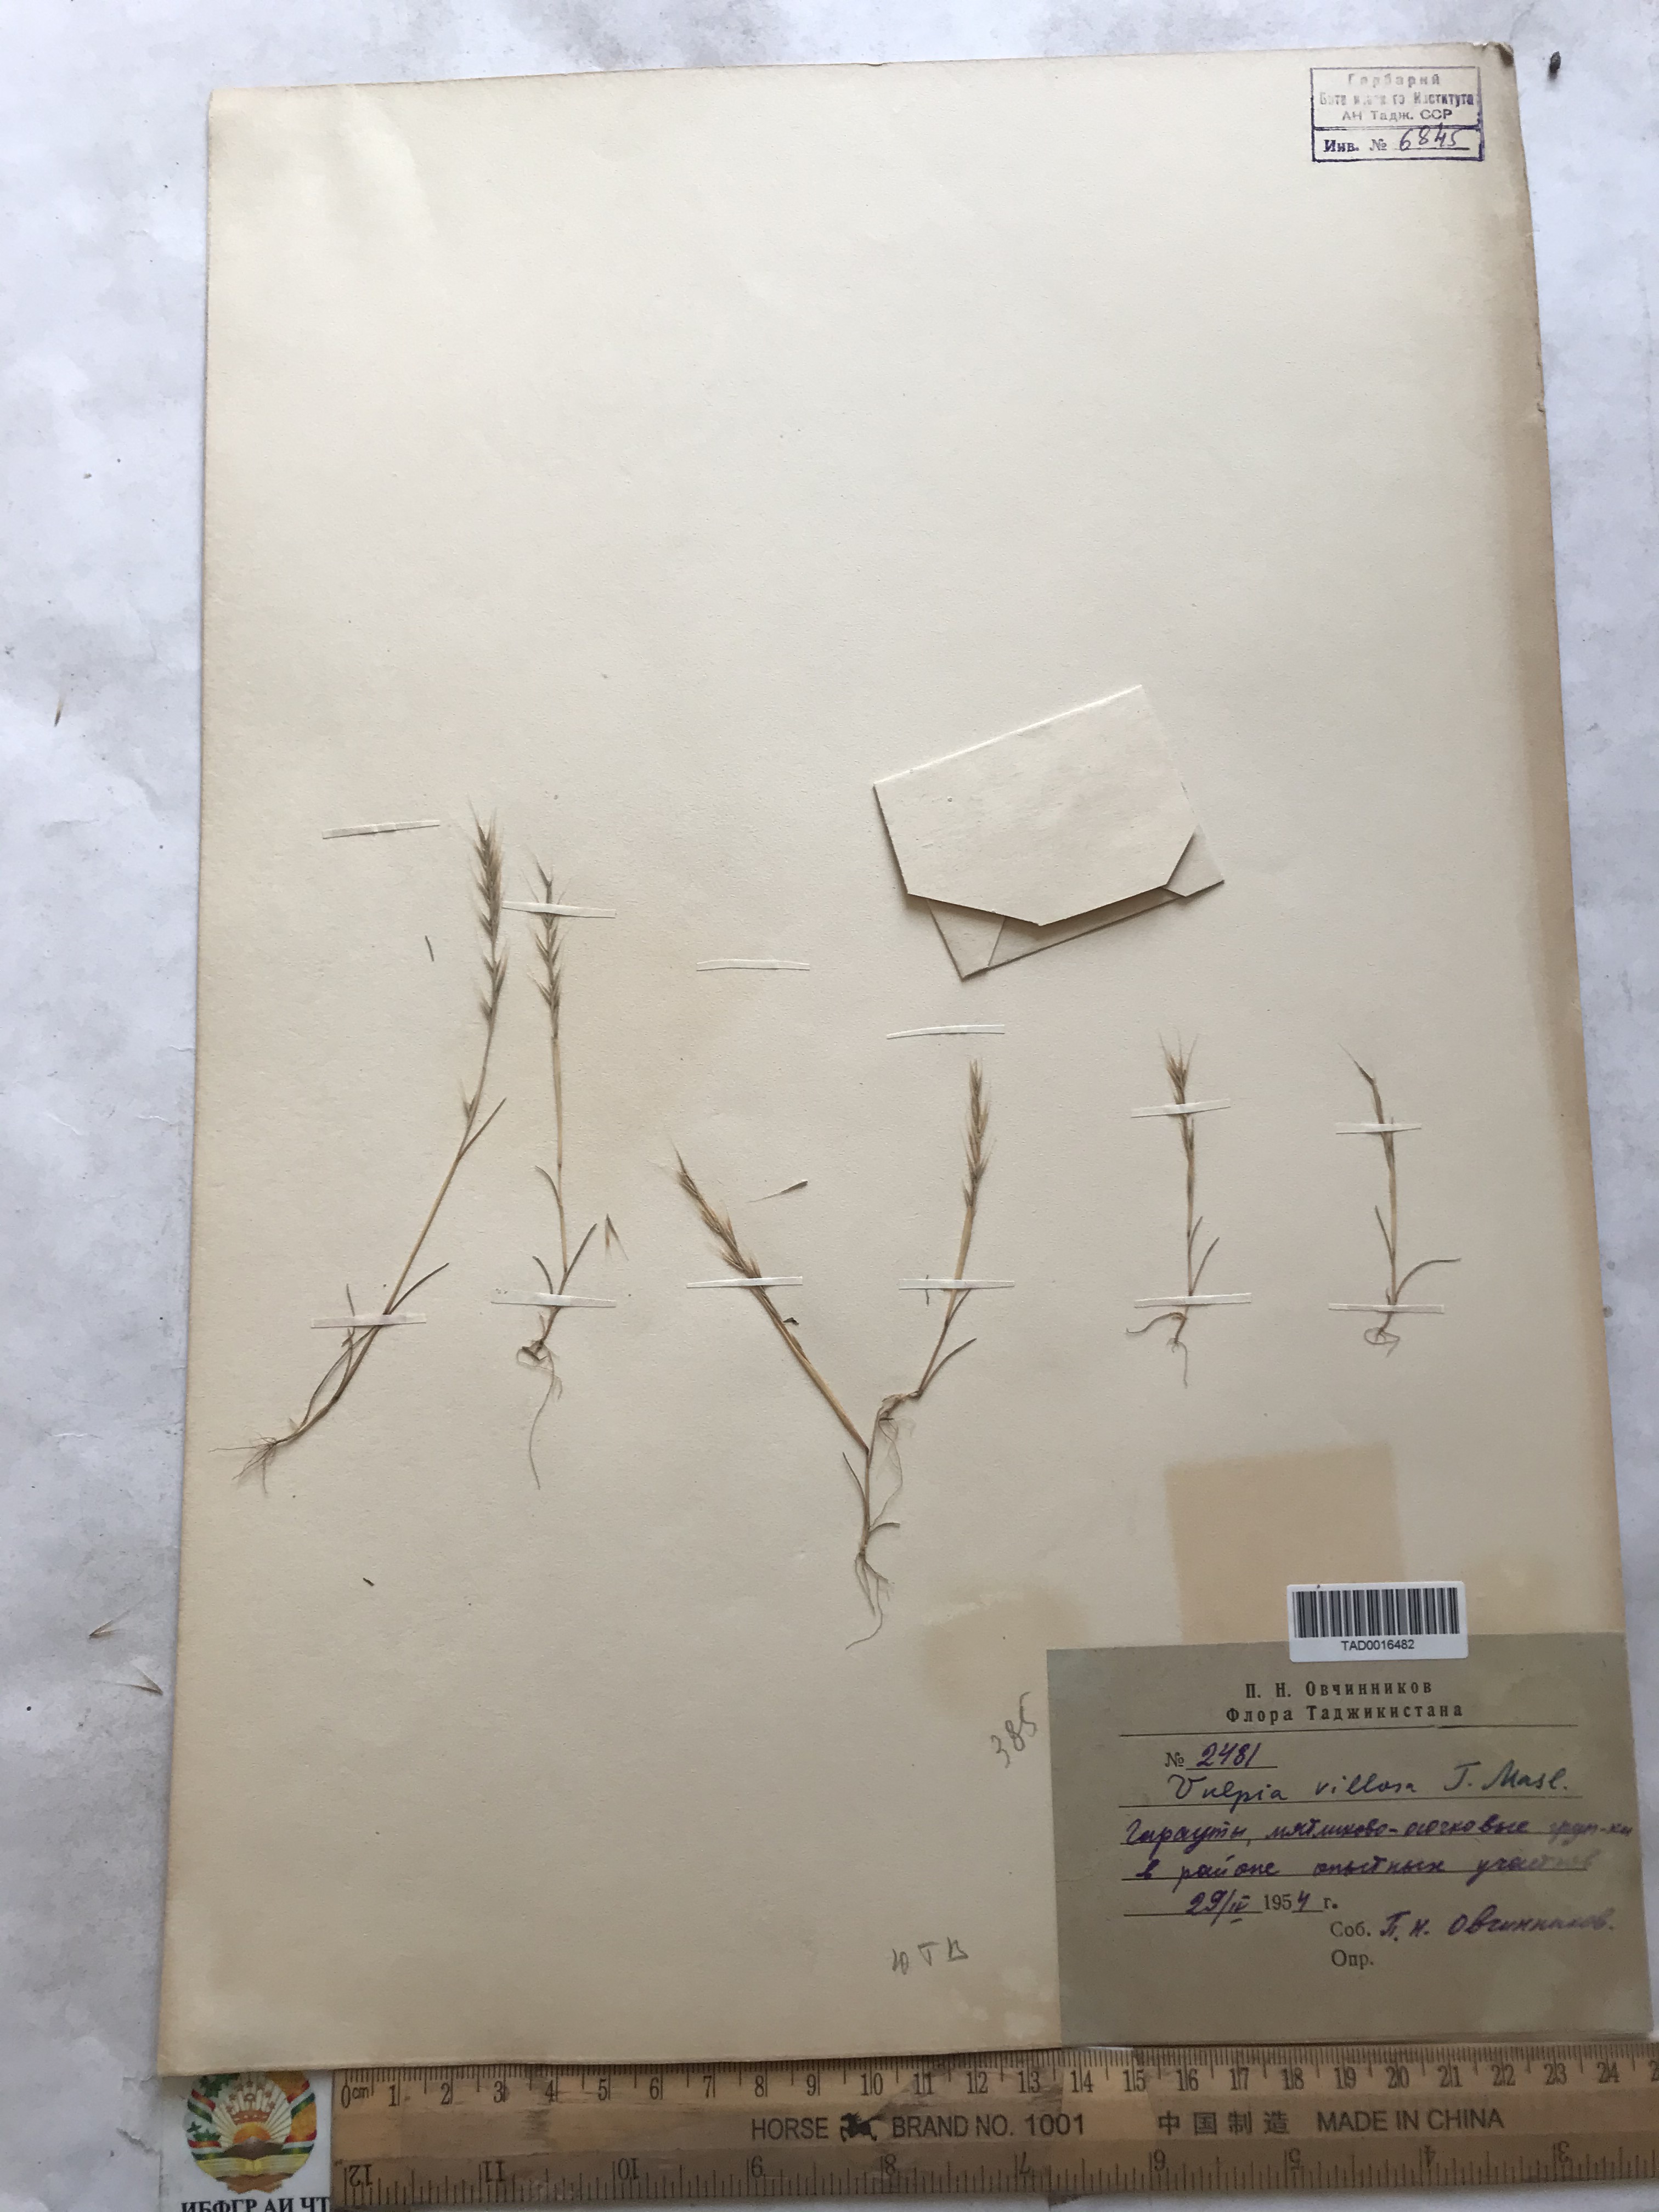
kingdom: Plantae
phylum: Tracheophyta
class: Liliopsida
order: Poales
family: Poaceae
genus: Festuca
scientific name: Festuca Vulpia persica
